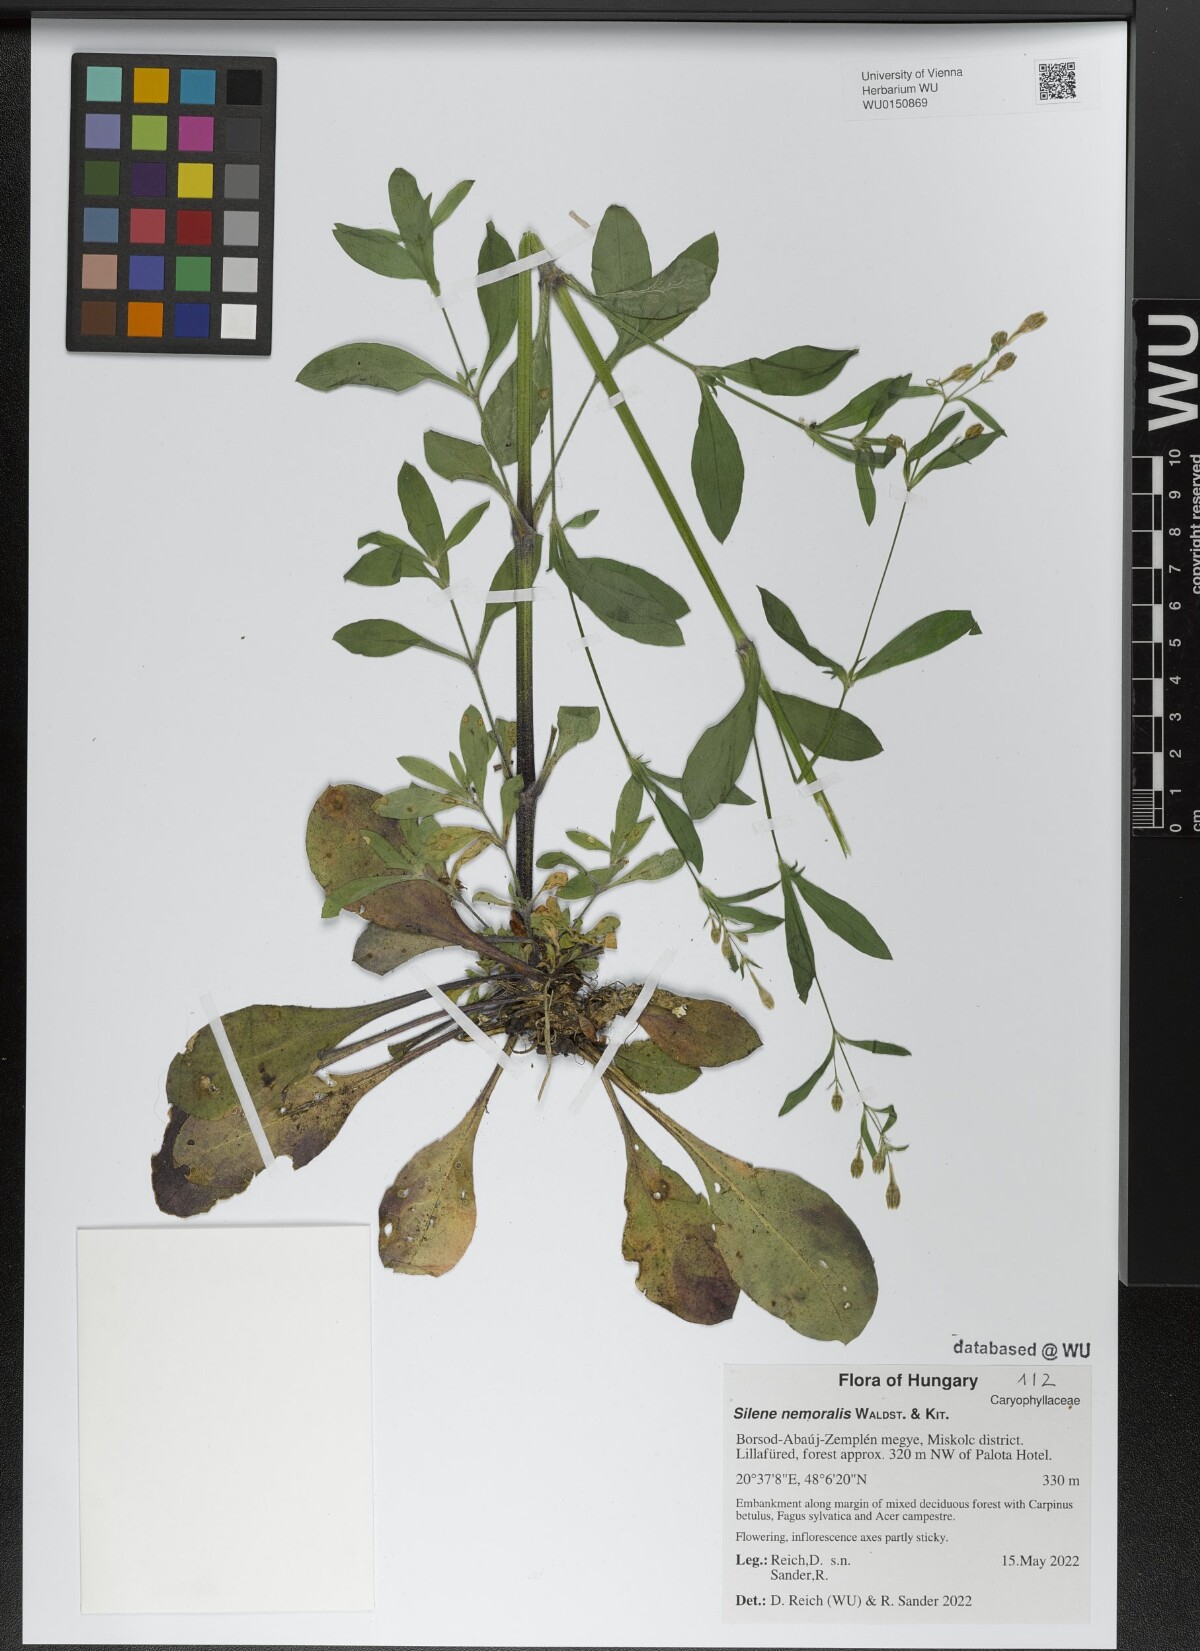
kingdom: Plantae
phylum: Tracheophyta
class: Magnoliopsida
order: Caryophyllales
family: Caryophyllaceae
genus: Silene
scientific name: Silene nemoralis
